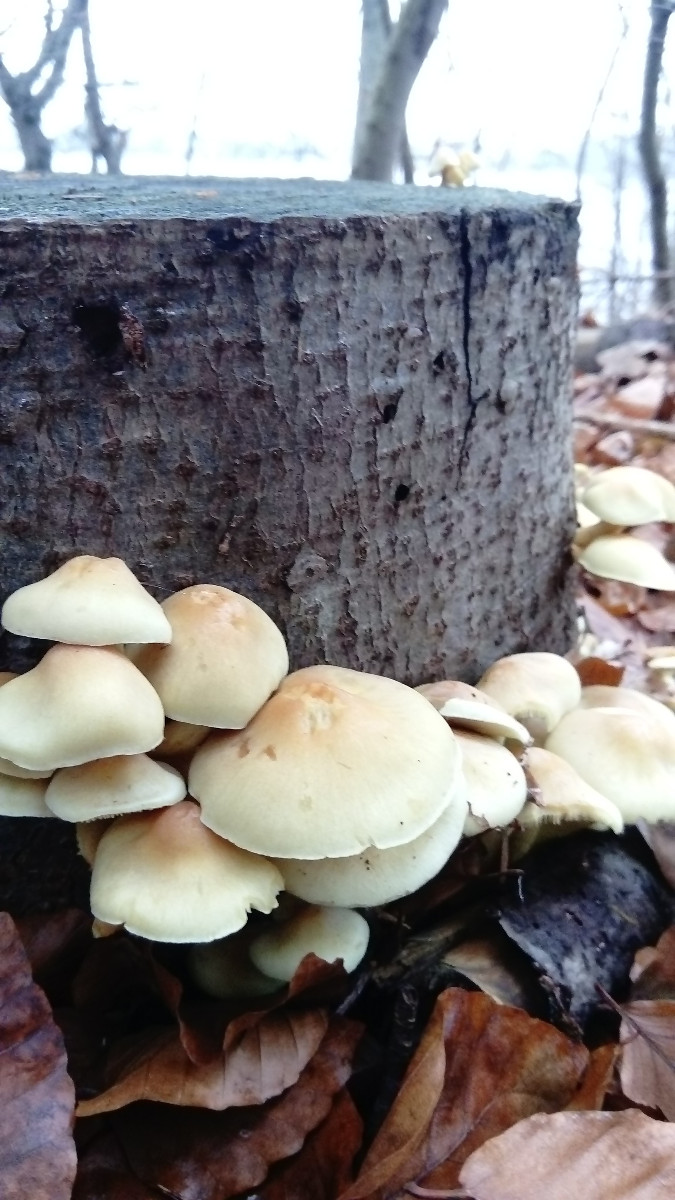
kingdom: Fungi
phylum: Basidiomycota
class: Agaricomycetes
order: Agaricales
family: Strophariaceae
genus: Hypholoma
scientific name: Hypholoma fasciculare
